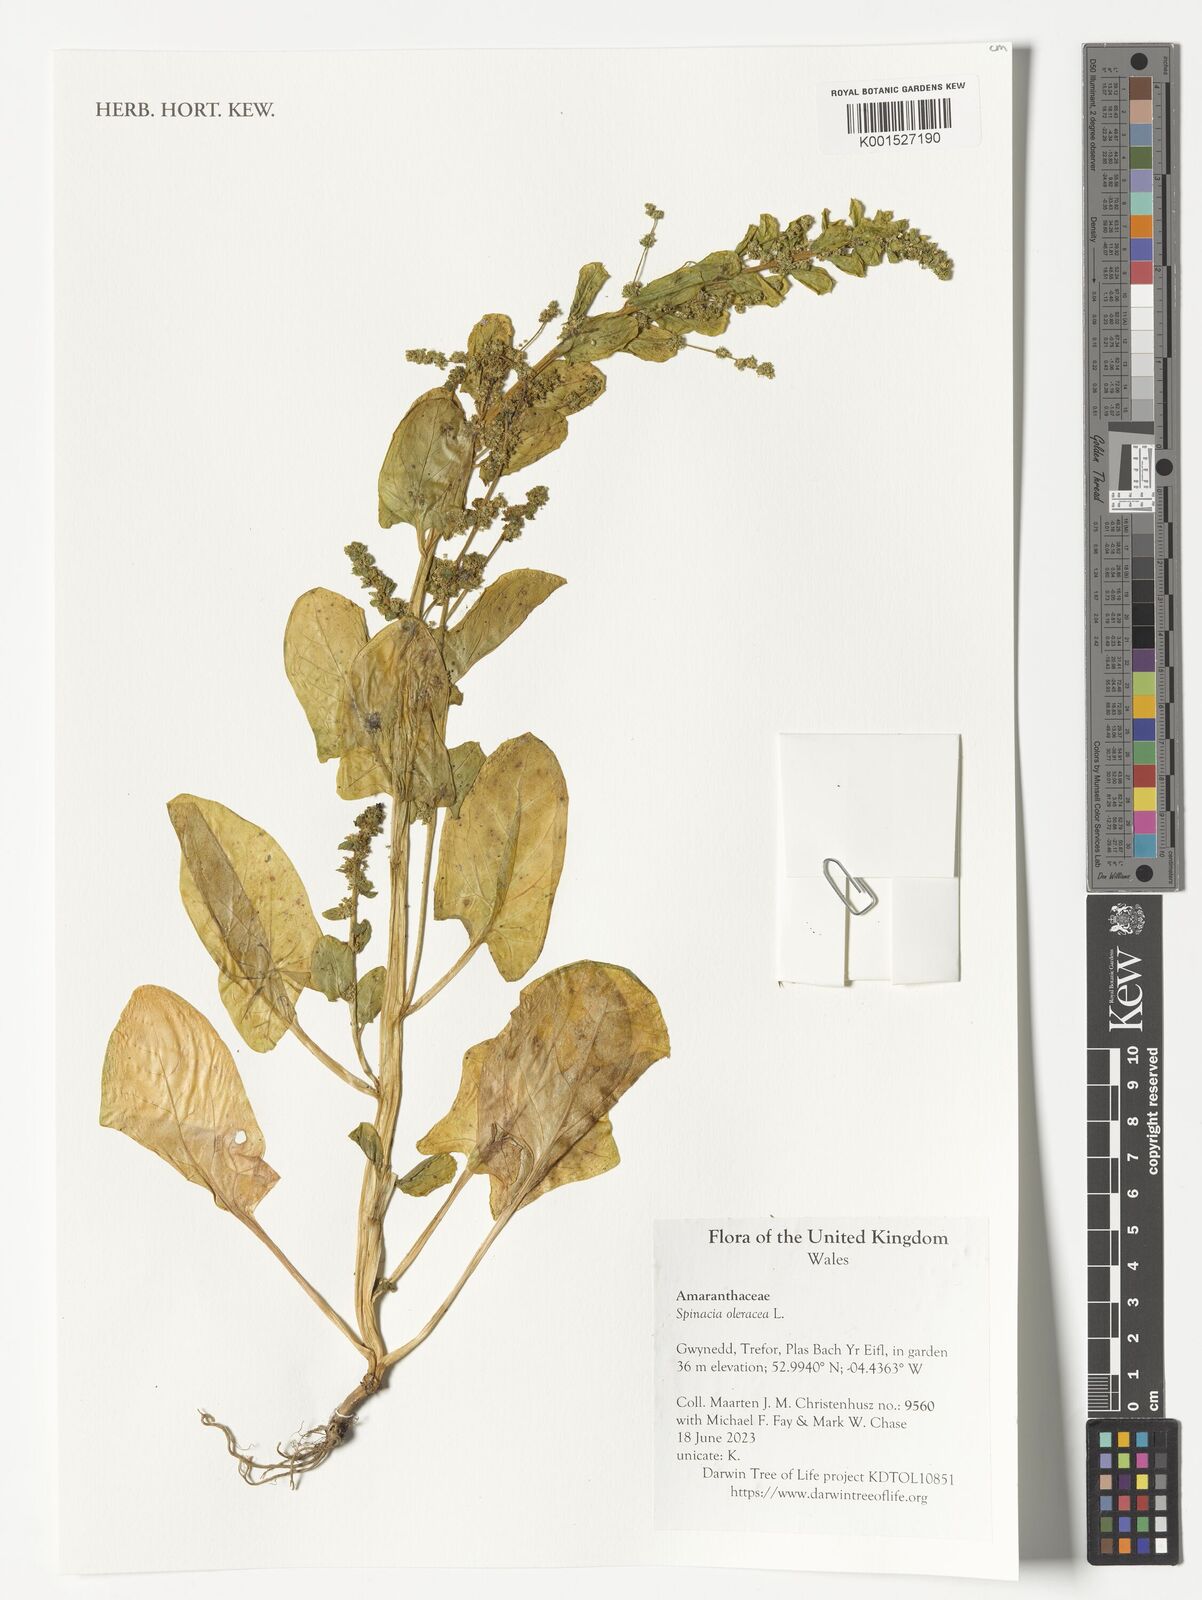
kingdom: Plantae
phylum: Tracheophyta
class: Magnoliopsida
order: Caryophyllales
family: Amaranthaceae
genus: Spinacia
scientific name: Spinacia oleracea
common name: Spinach
